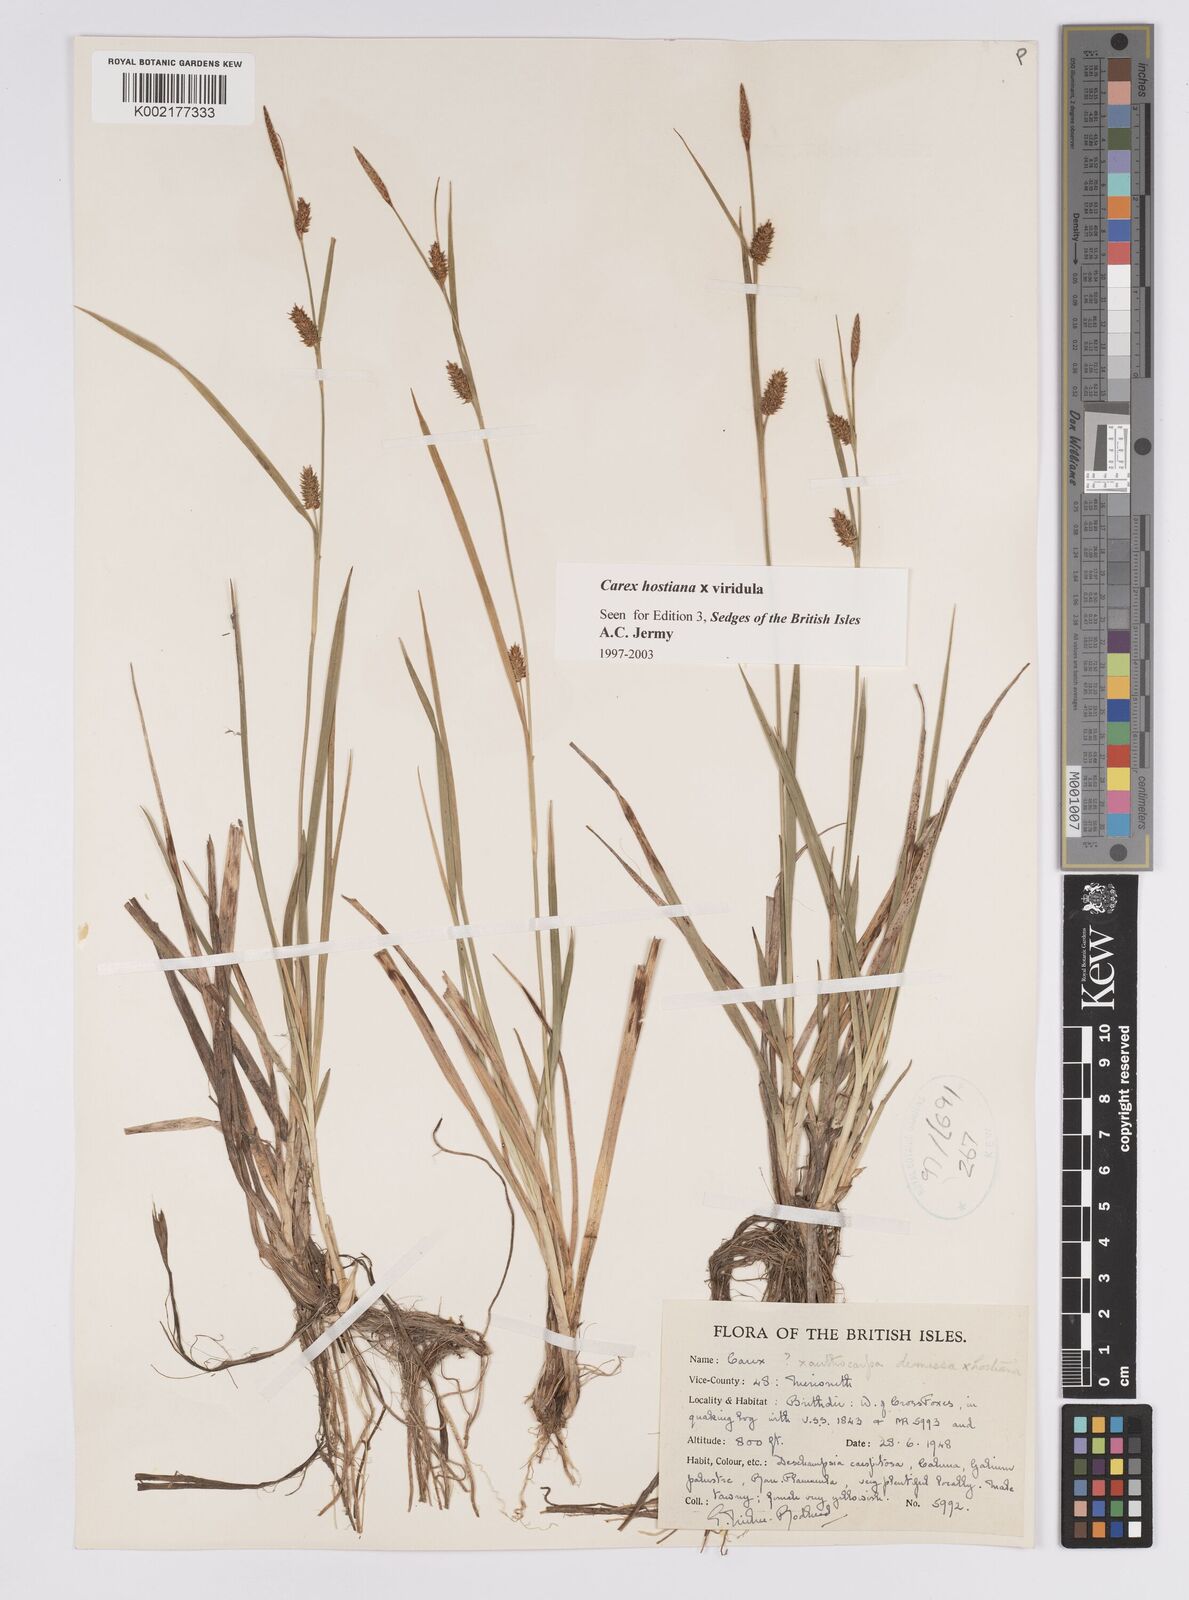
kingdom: Plantae
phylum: Tracheophyta
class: Liliopsida
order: Poales
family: Cyperaceae
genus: Carex
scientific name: Carex hostiana
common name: Tawny sedge
